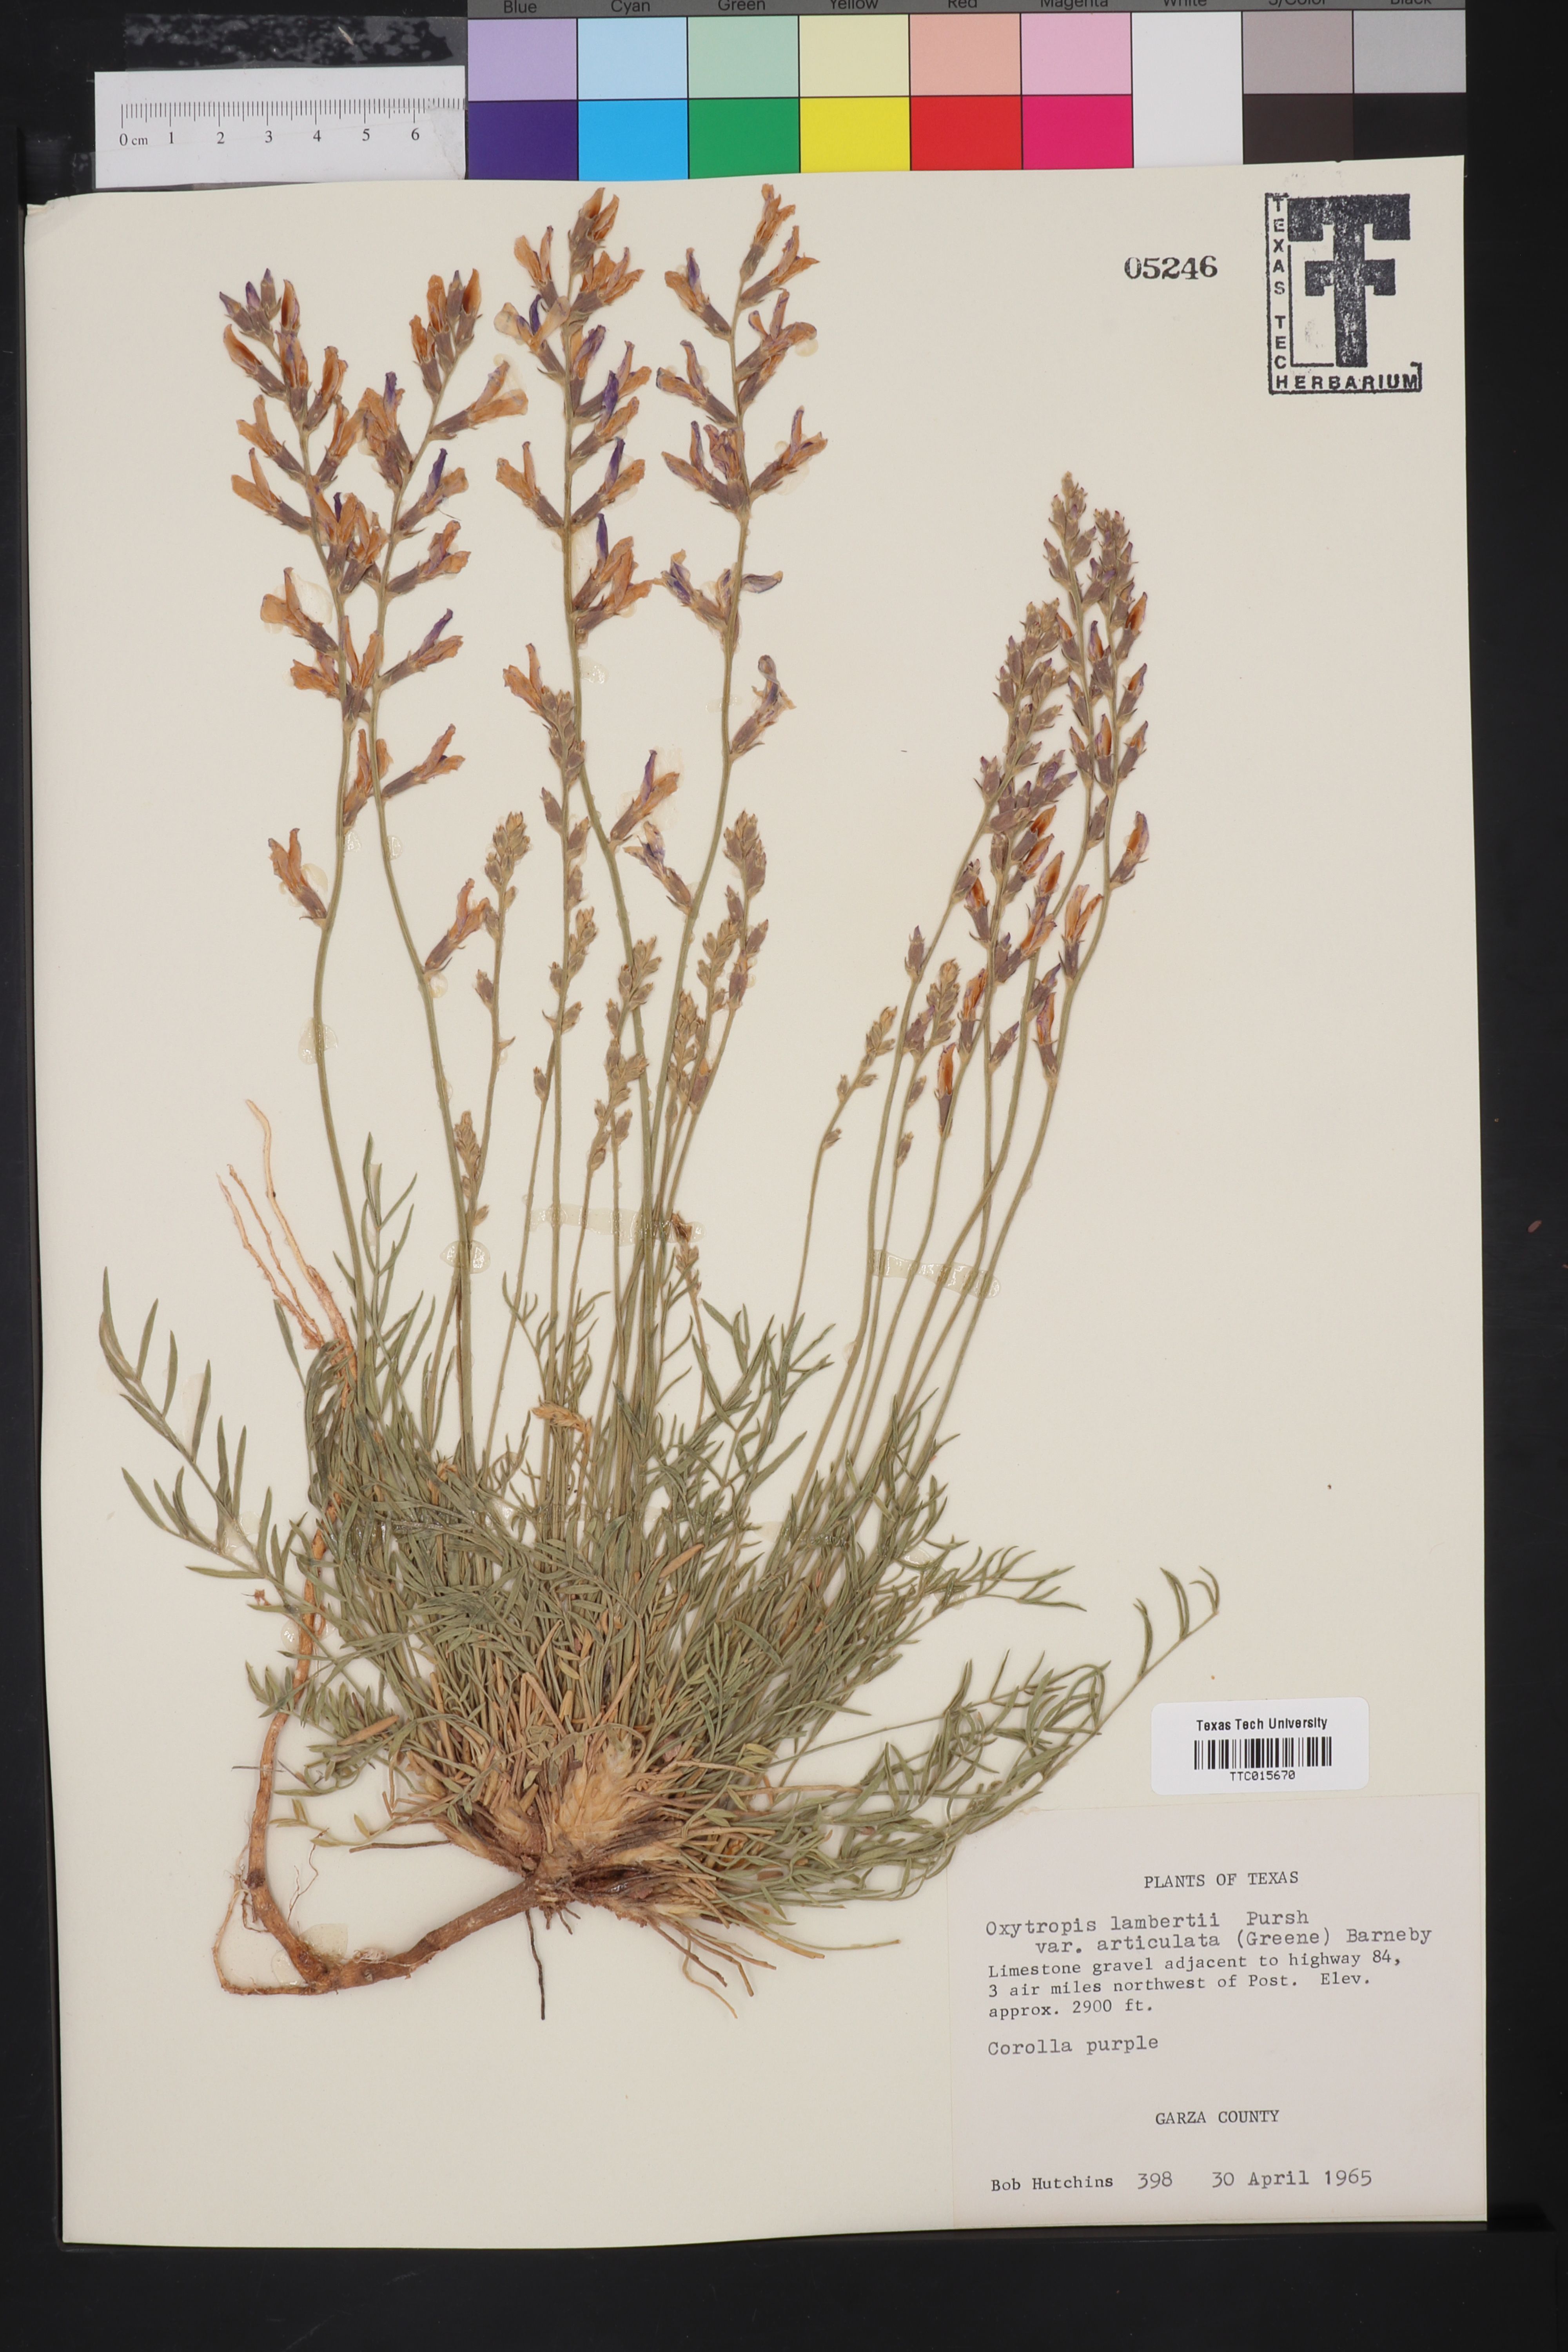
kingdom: Plantae
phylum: Tracheophyta
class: Magnoliopsida
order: Fabales
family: Fabaceae
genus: Oxytropis
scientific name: Oxytropis lambertii
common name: Purple locoweed
